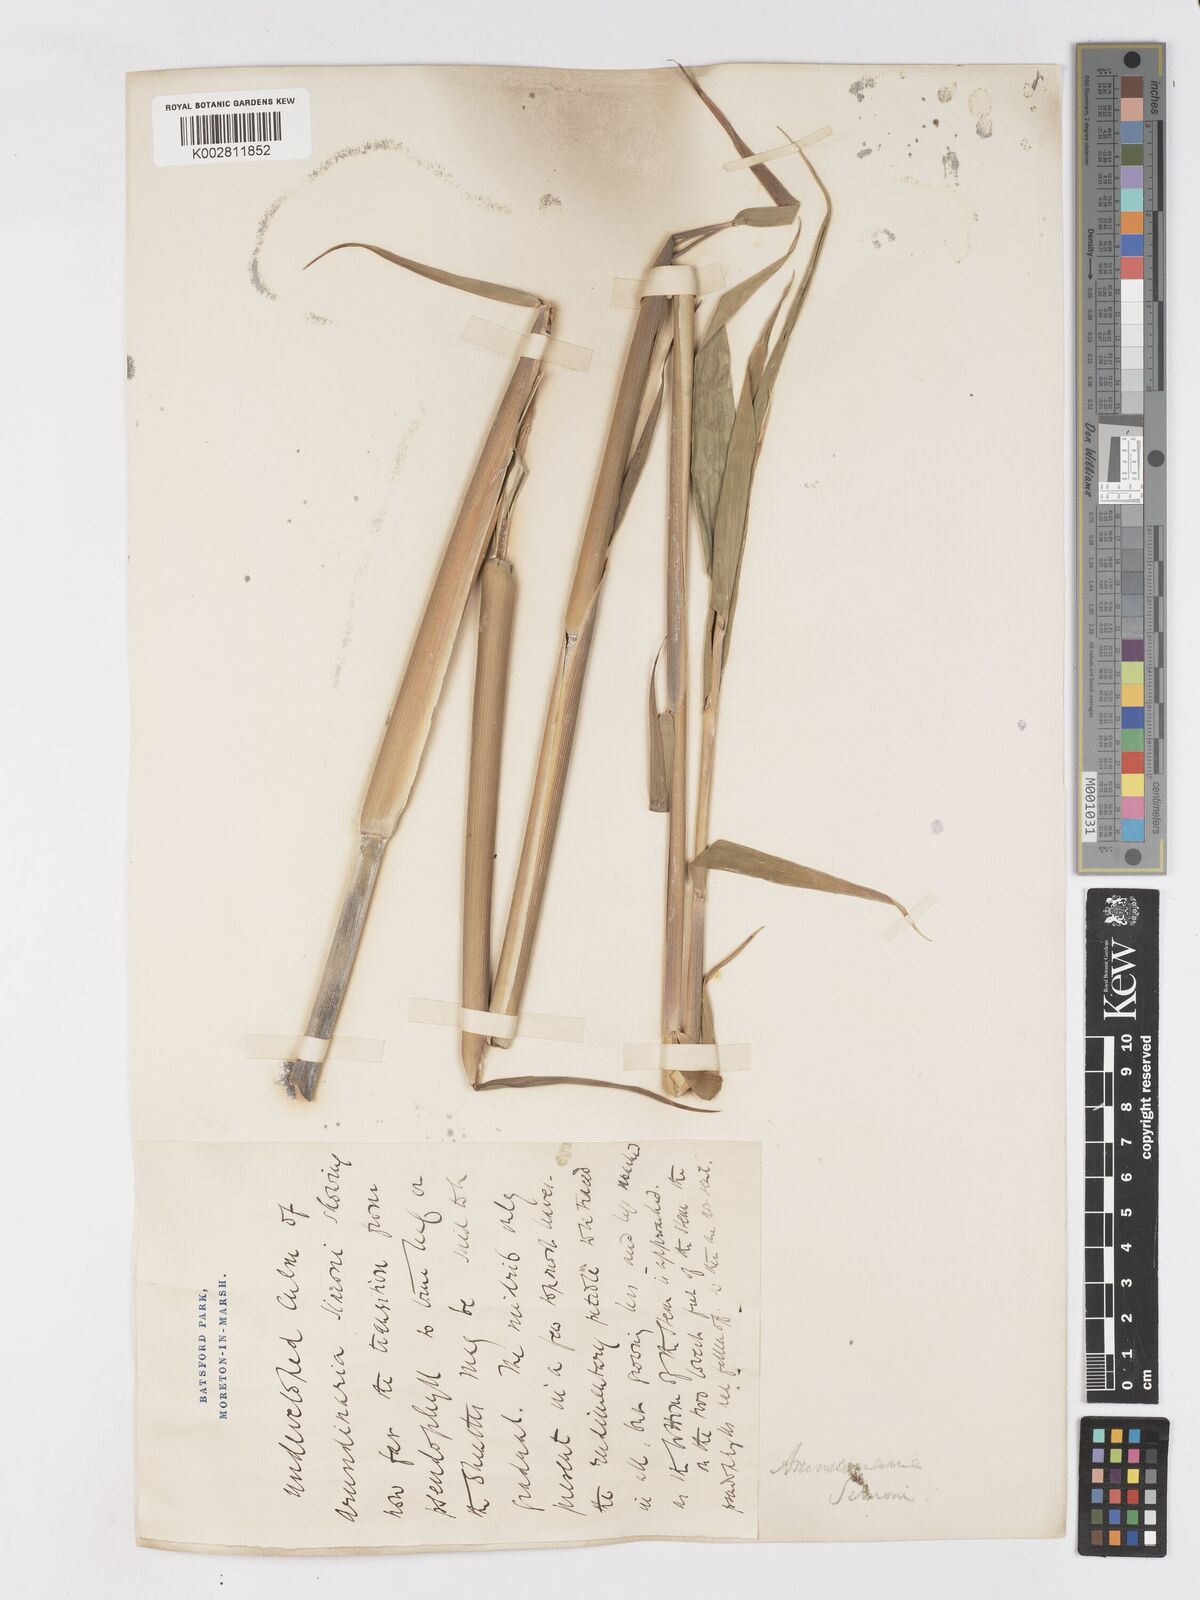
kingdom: Plantae
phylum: Tracheophyta
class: Liliopsida
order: Poales
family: Poaceae
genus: Pleioblastus
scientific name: Pleioblastus simonii
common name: Simon bamboo
